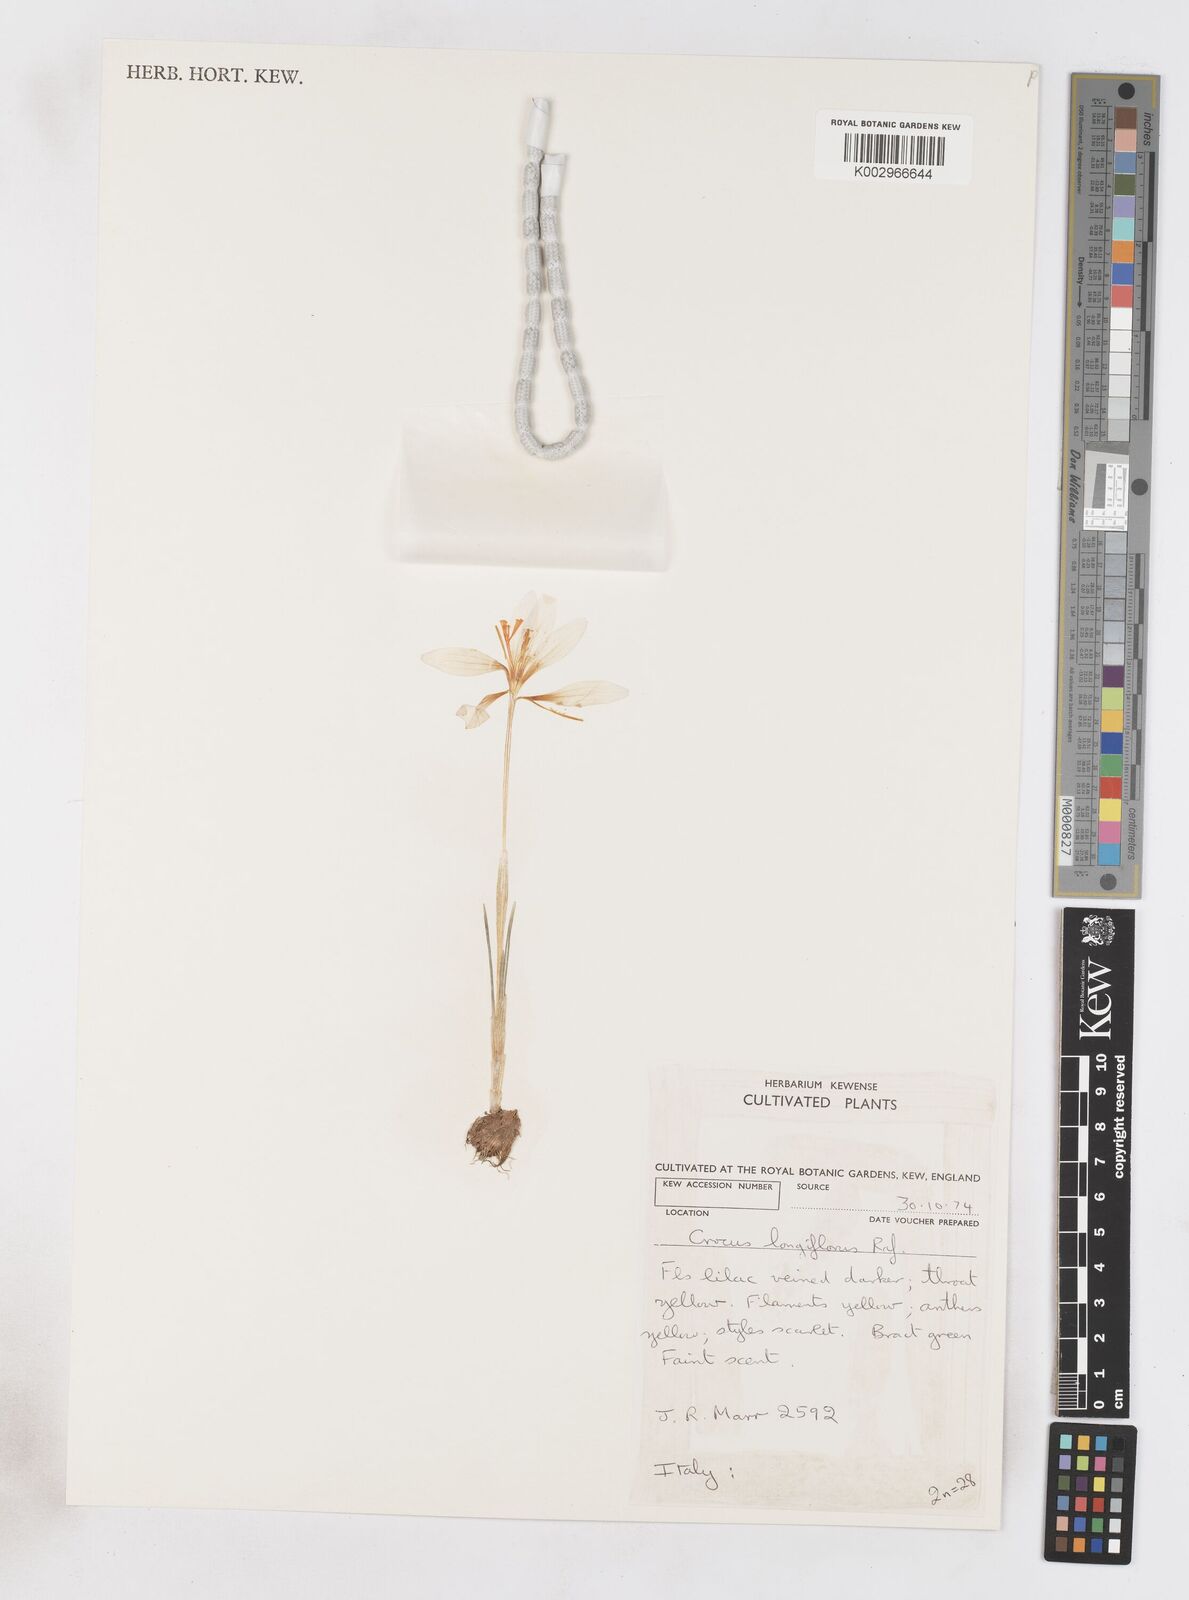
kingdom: Plantae
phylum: Tracheophyta
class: Liliopsida
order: Asparagales
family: Iridaceae
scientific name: Iridaceae
